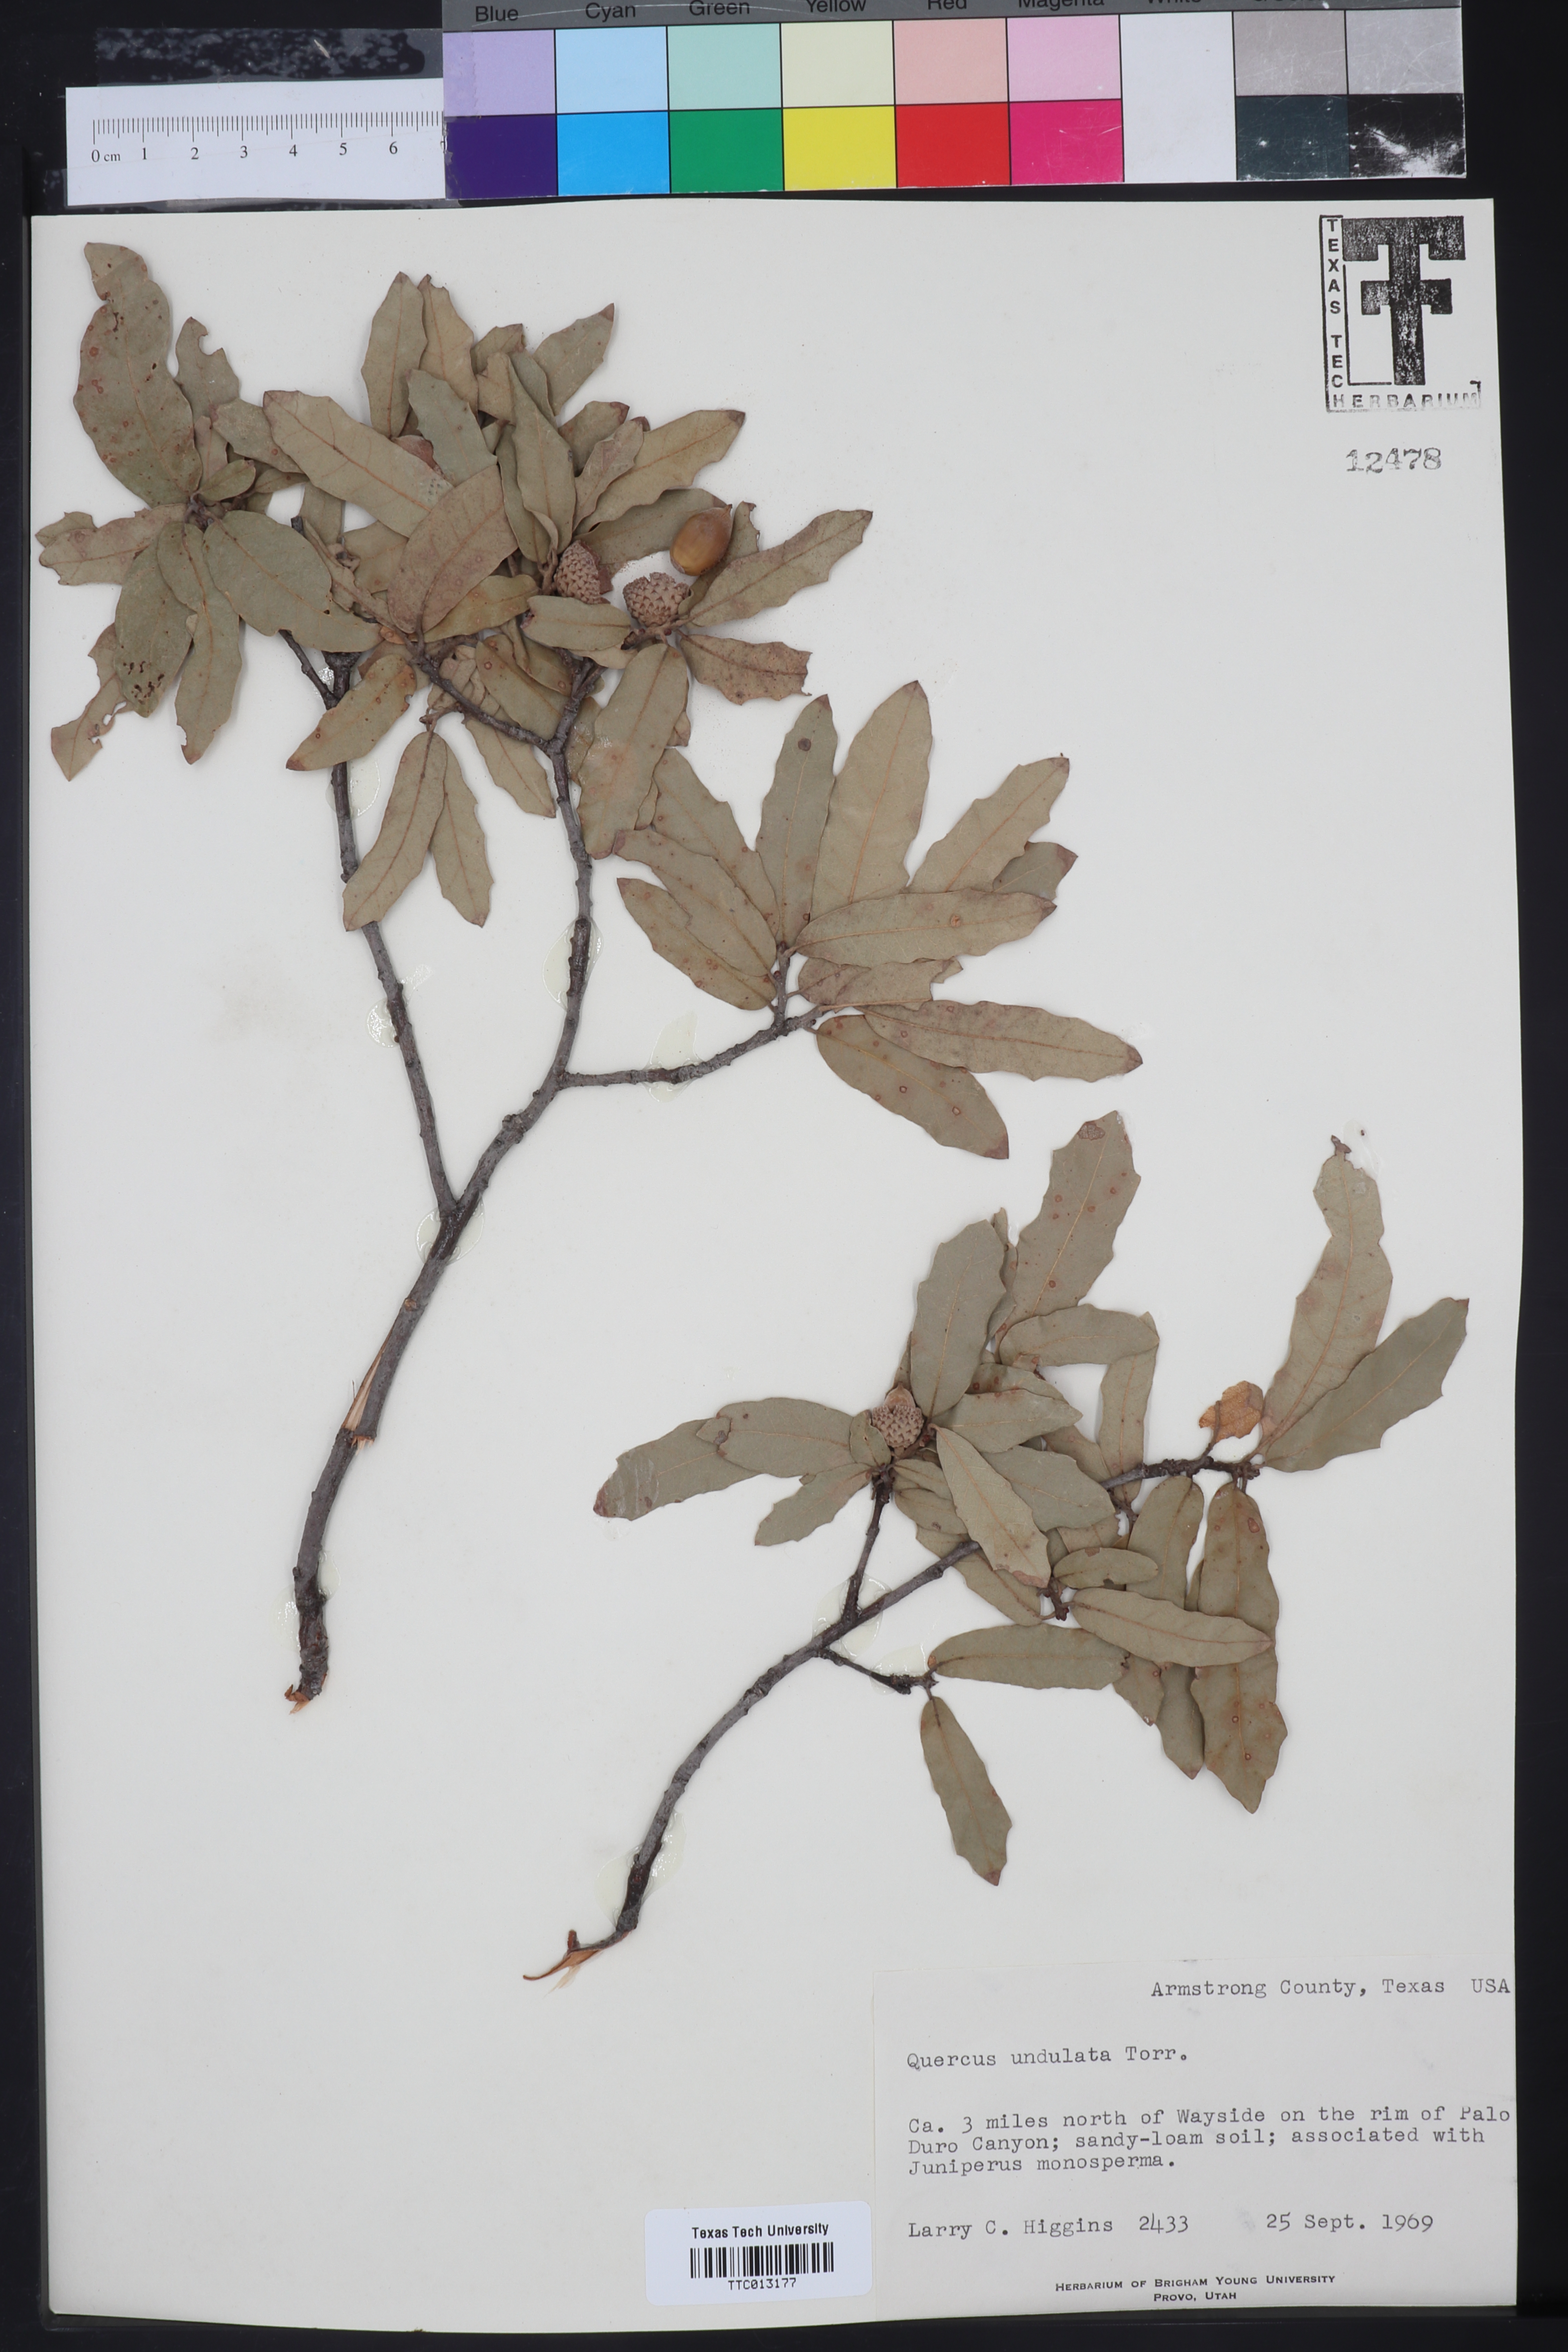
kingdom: Plantae
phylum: Tracheophyta
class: Magnoliopsida
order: Fagales
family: Fagaceae
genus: Quercus
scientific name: Quercus undulata
